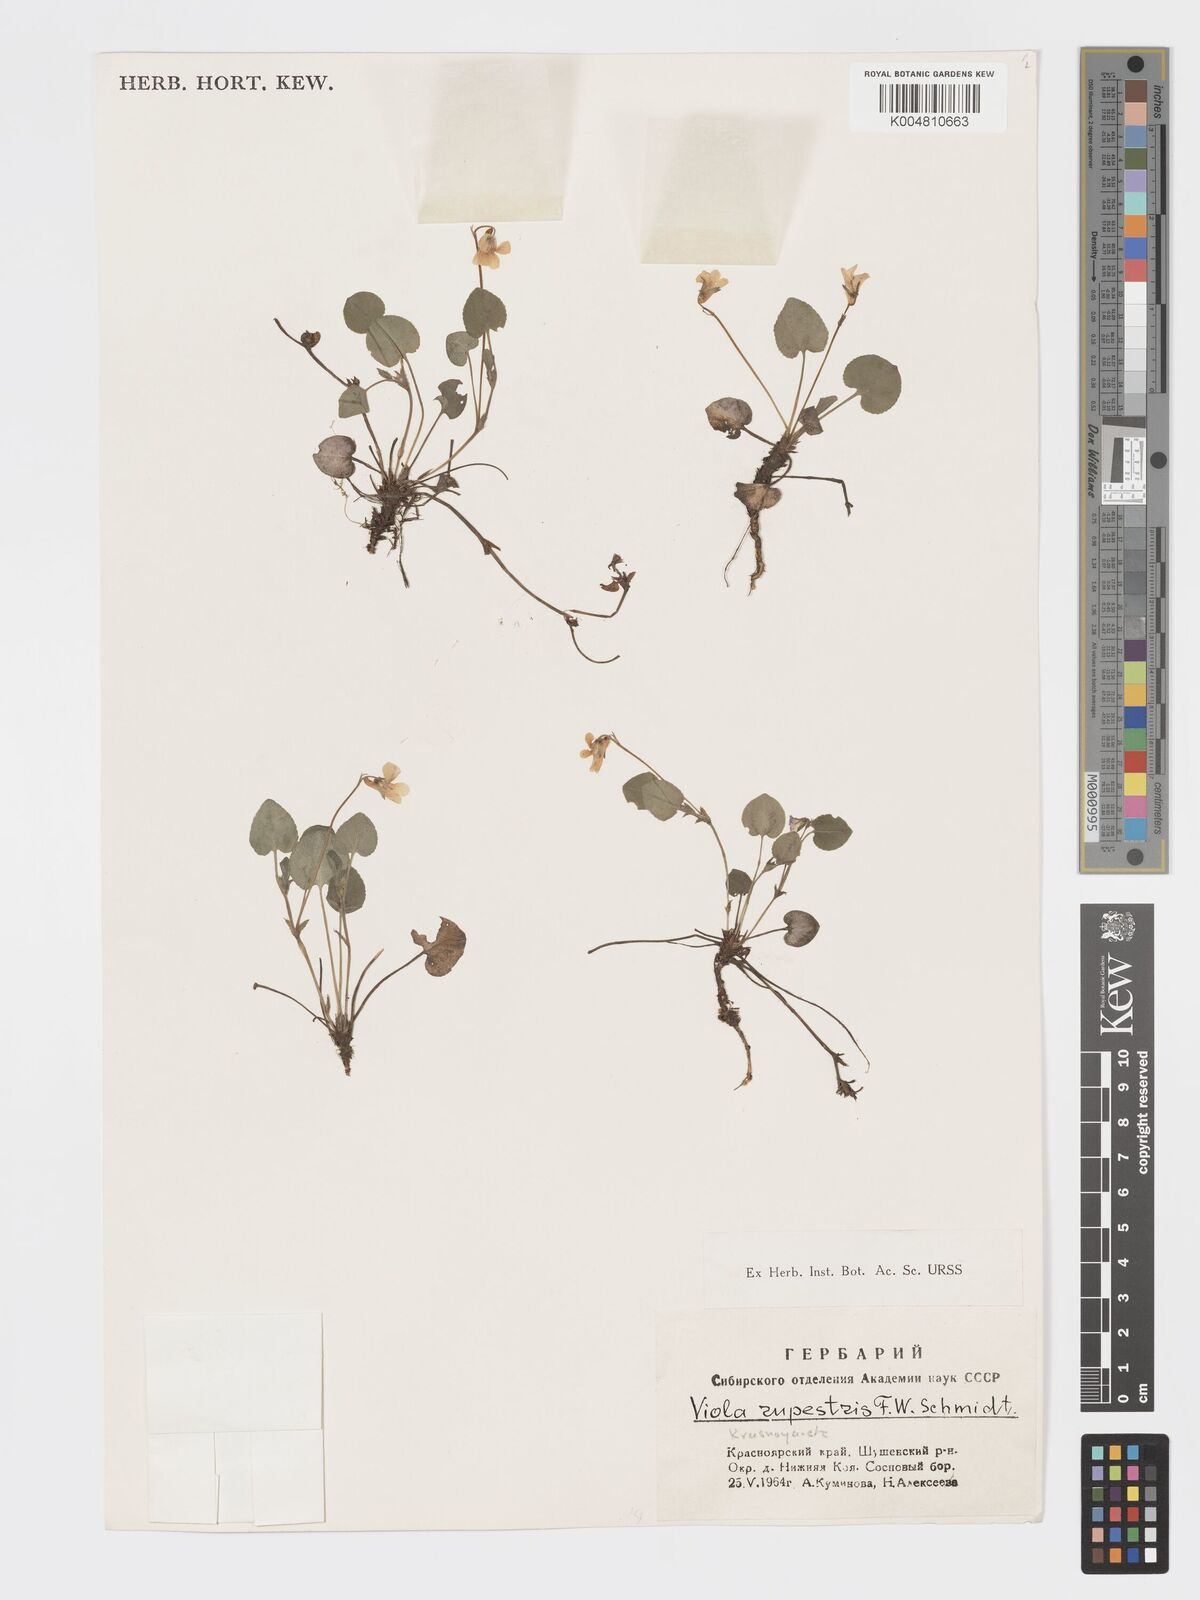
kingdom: Plantae
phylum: Tracheophyta
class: Magnoliopsida
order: Malpighiales
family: Violaceae
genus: Viola
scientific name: Viola rupestris
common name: Teesdale violet
